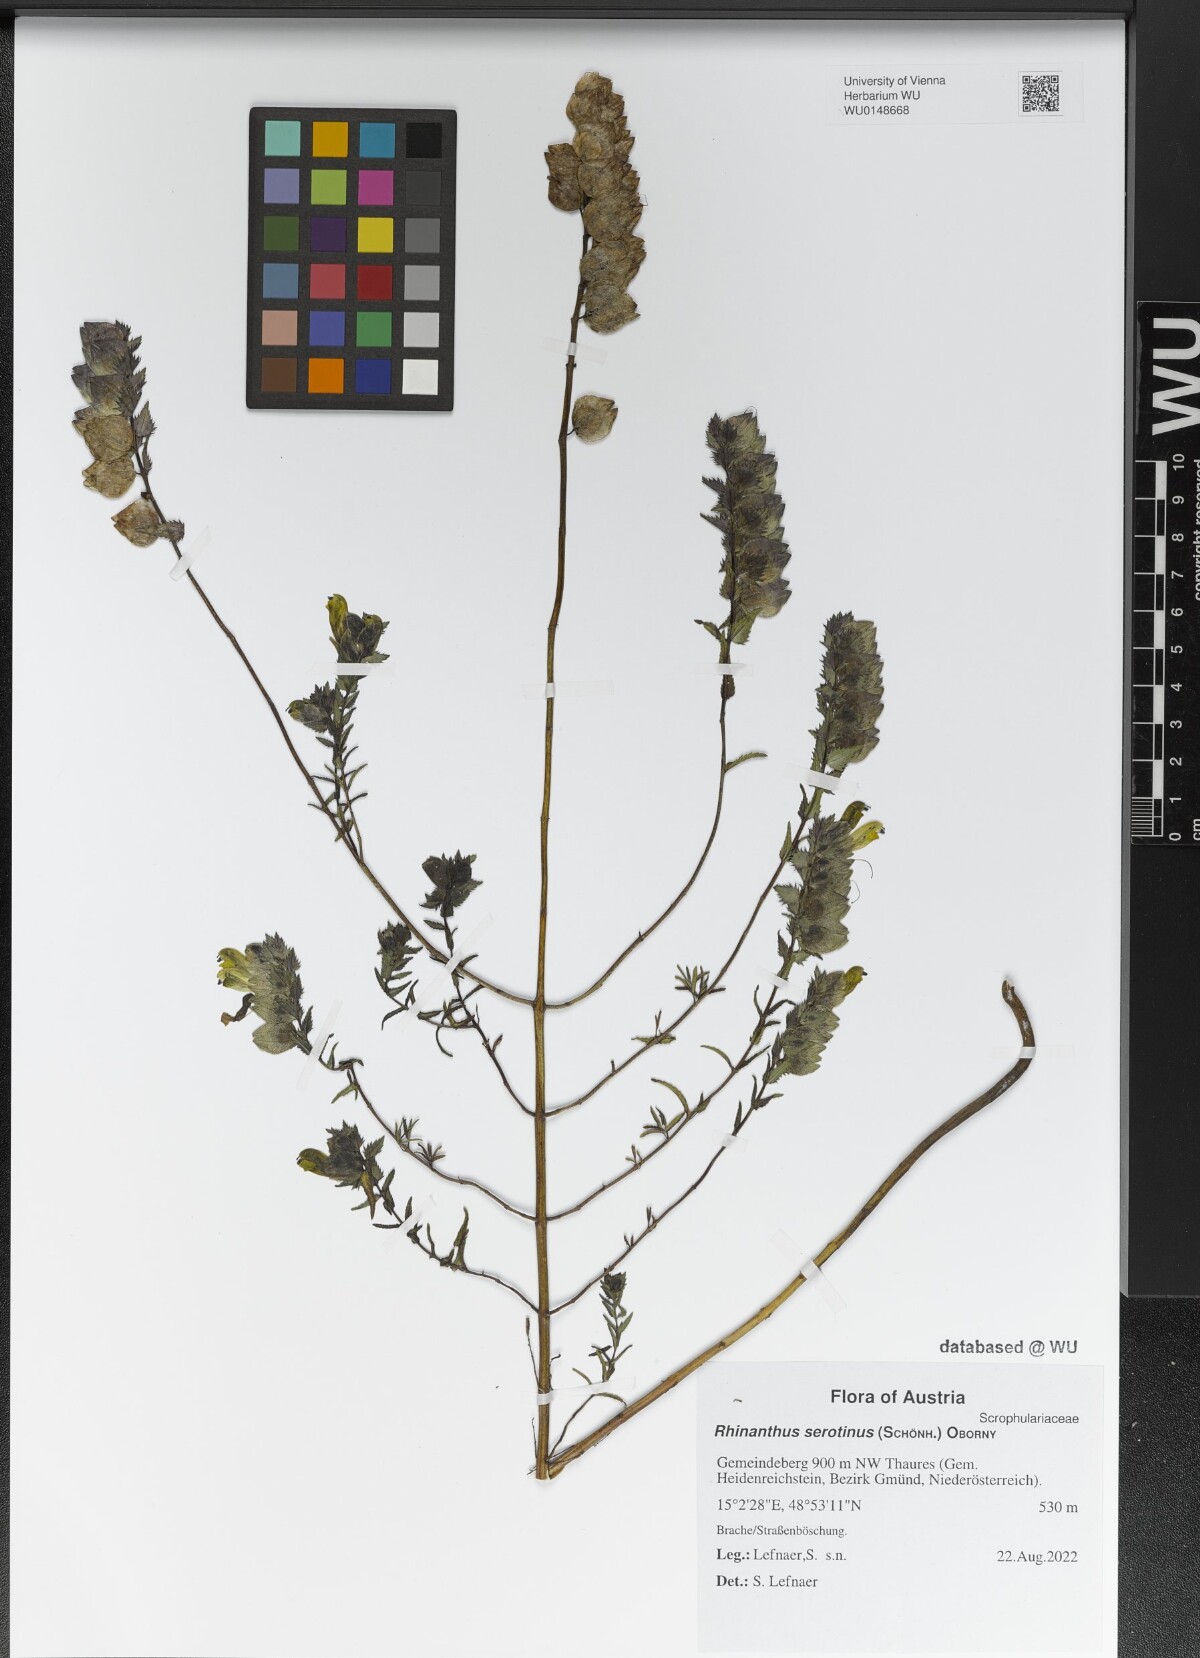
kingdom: Plantae
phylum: Tracheophyta
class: Magnoliopsida
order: Lamiales
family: Orobanchaceae
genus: Rhinanthus
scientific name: Rhinanthus serotinus
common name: Late-flowering yellow rattle
